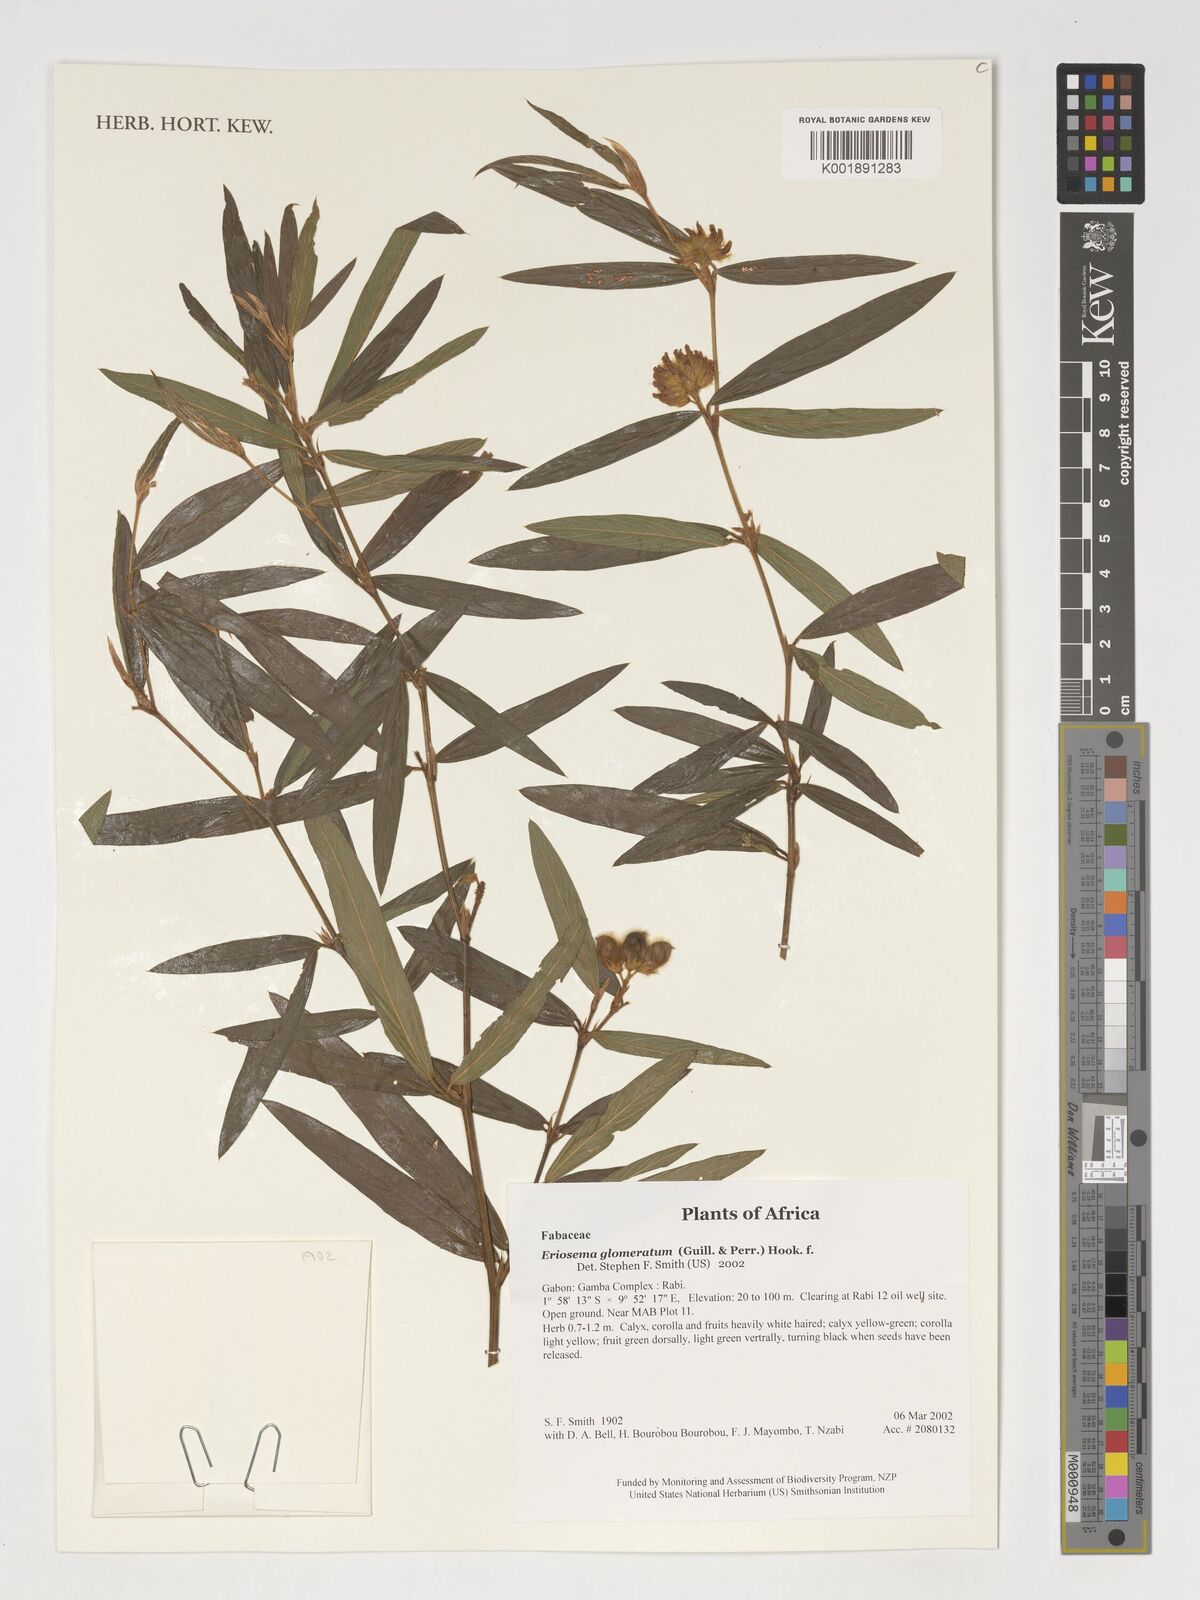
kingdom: Plantae
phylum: Tracheophyta
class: Magnoliopsida
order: Fabales
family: Fabaceae
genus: Eriosema
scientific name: Eriosema glomeratum
